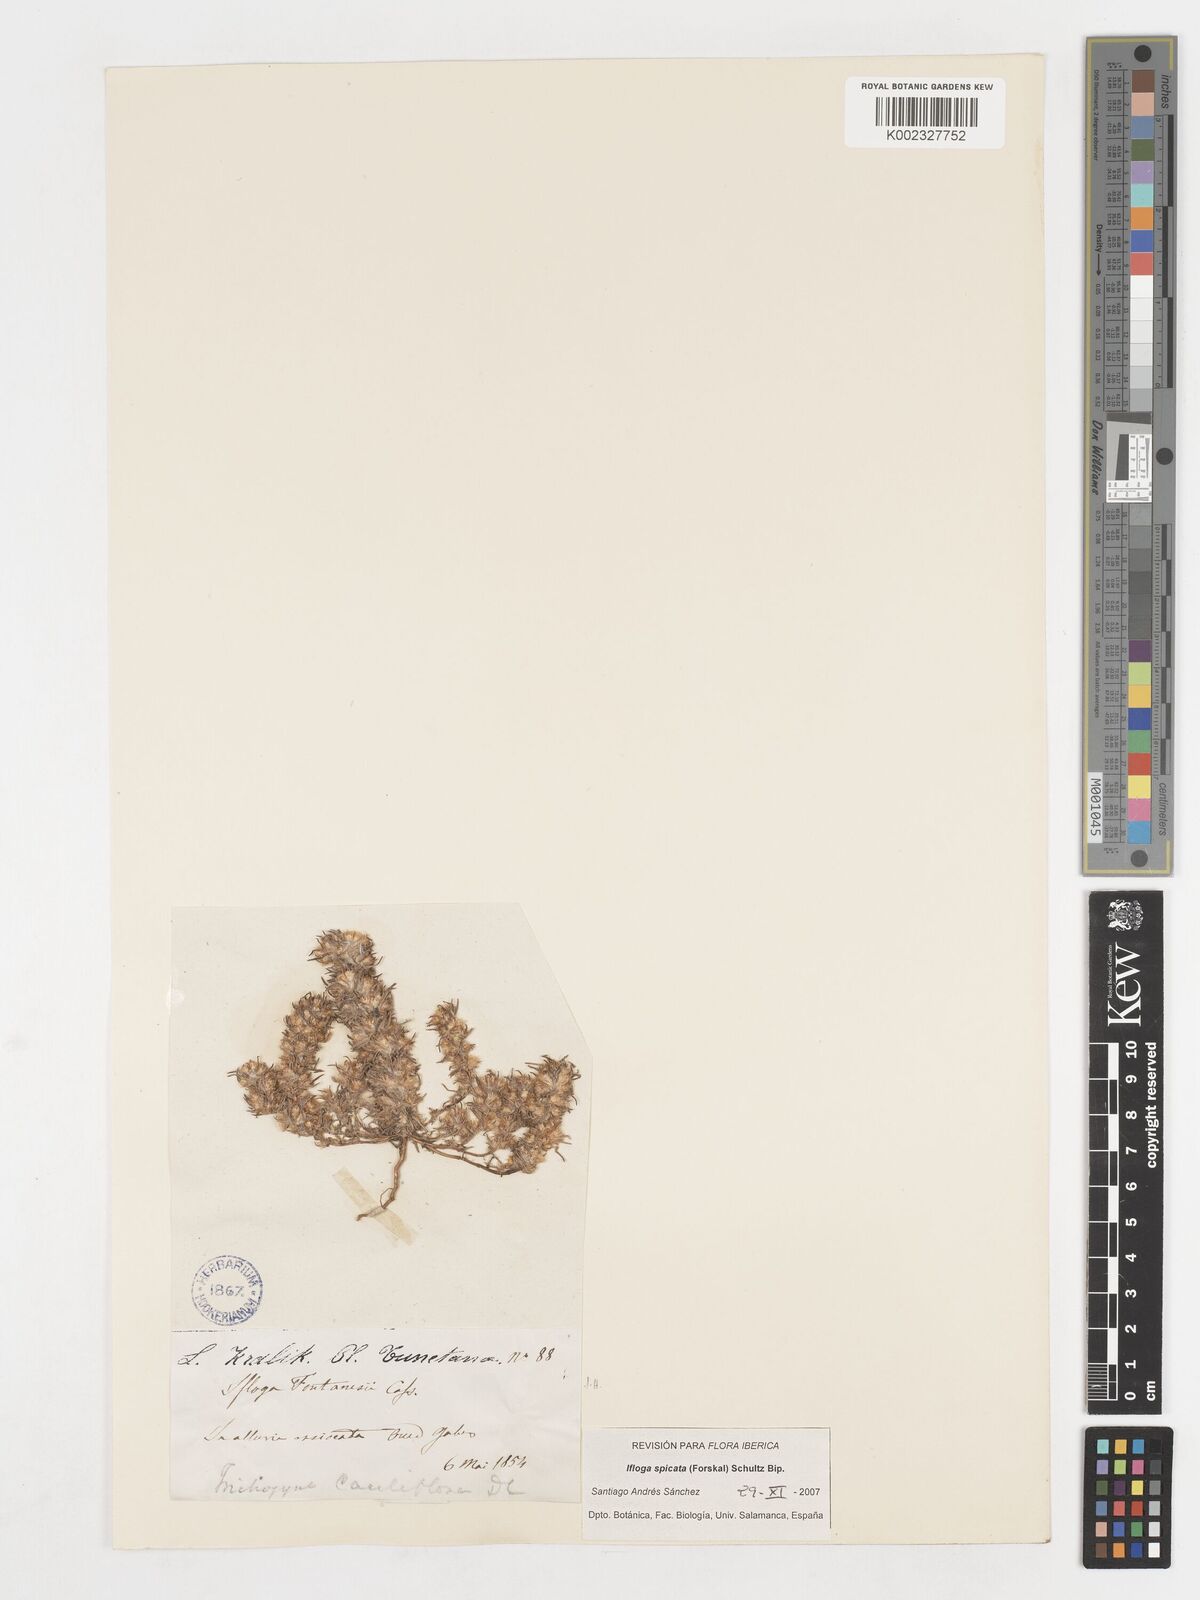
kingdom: Plantae
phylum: Tracheophyta
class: Magnoliopsida
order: Asterales
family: Asteraceae
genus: Ifloga
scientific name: Ifloga spicata
